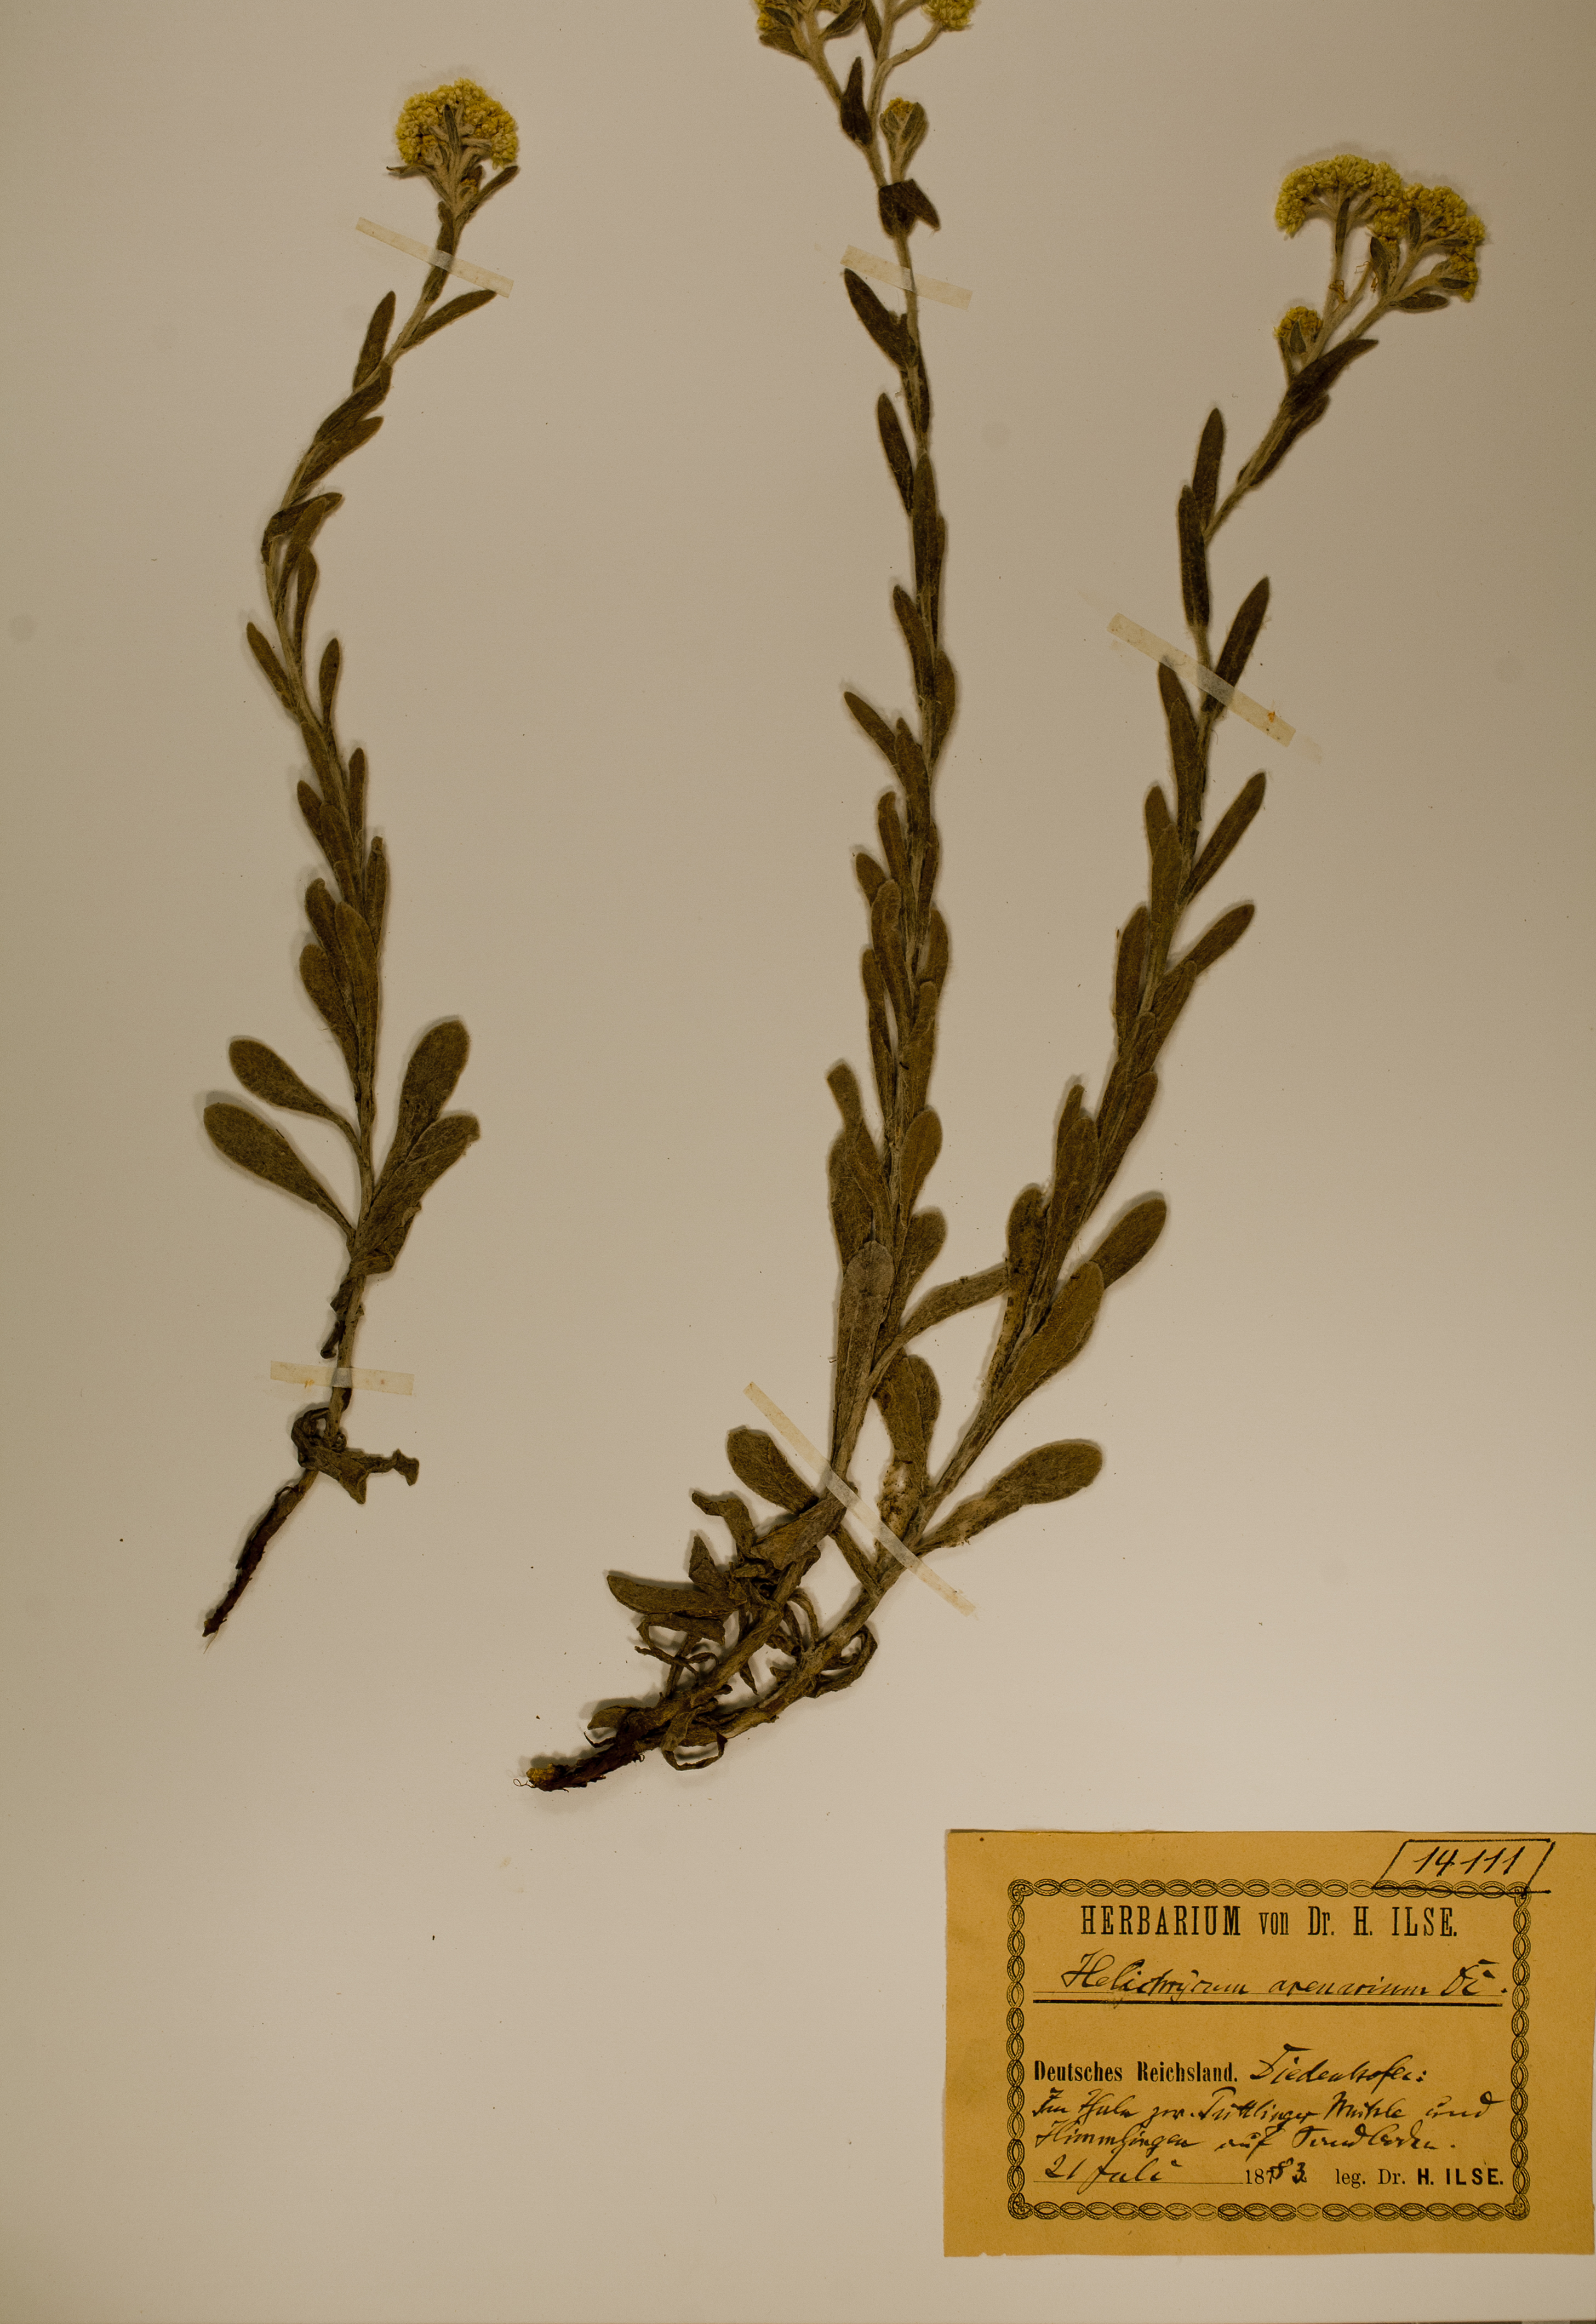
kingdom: Plantae
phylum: Tracheophyta
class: Magnoliopsida
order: Asterales
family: Asteraceae
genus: Helichrysum
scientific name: Helichrysum arenarium
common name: Strawflower
